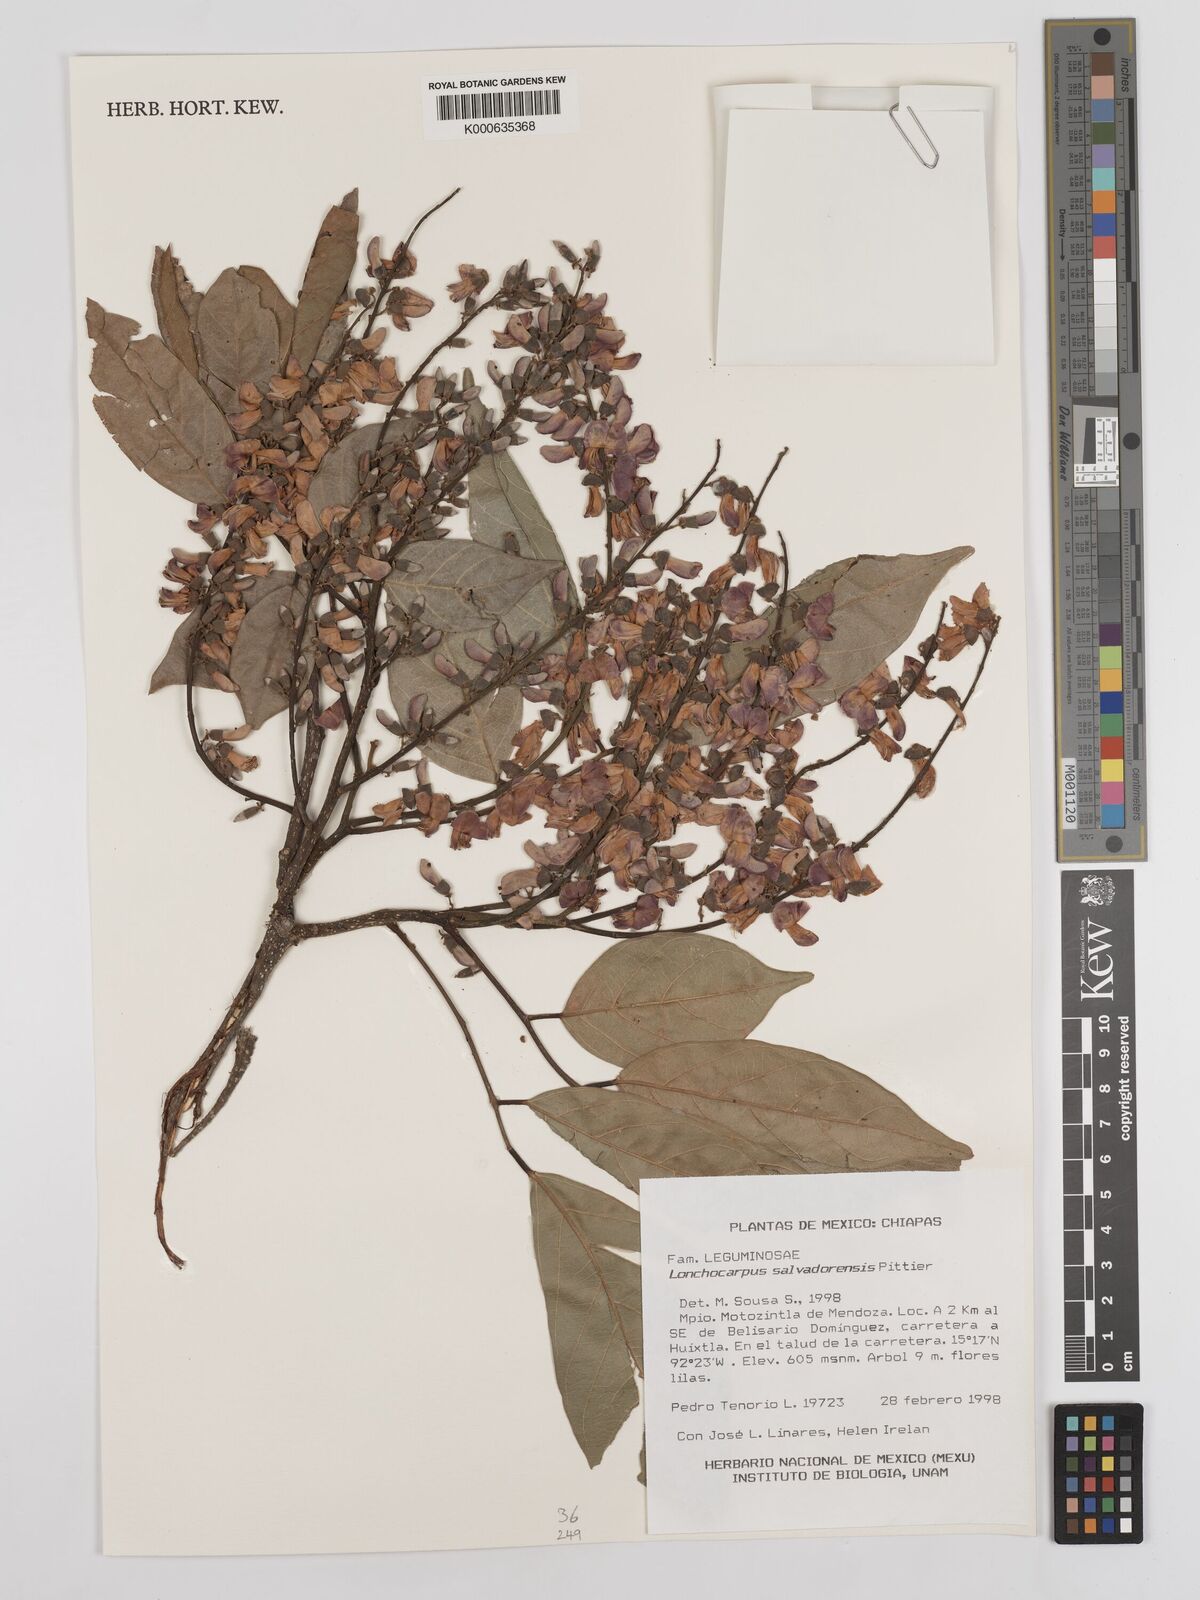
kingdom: Plantae
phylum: Tracheophyta
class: Magnoliopsida
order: Fabales
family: Fabaceae
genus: Lonchocarpus
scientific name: Lonchocarpus salvadorensis
